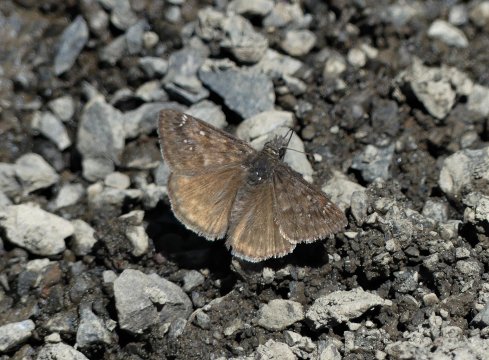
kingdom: Animalia
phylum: Arthropoda
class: Insecta
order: Lepidoptera
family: Hesperiidae
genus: Erynnis
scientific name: Erynnis pacuvius
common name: Pacuvius Duskywing
